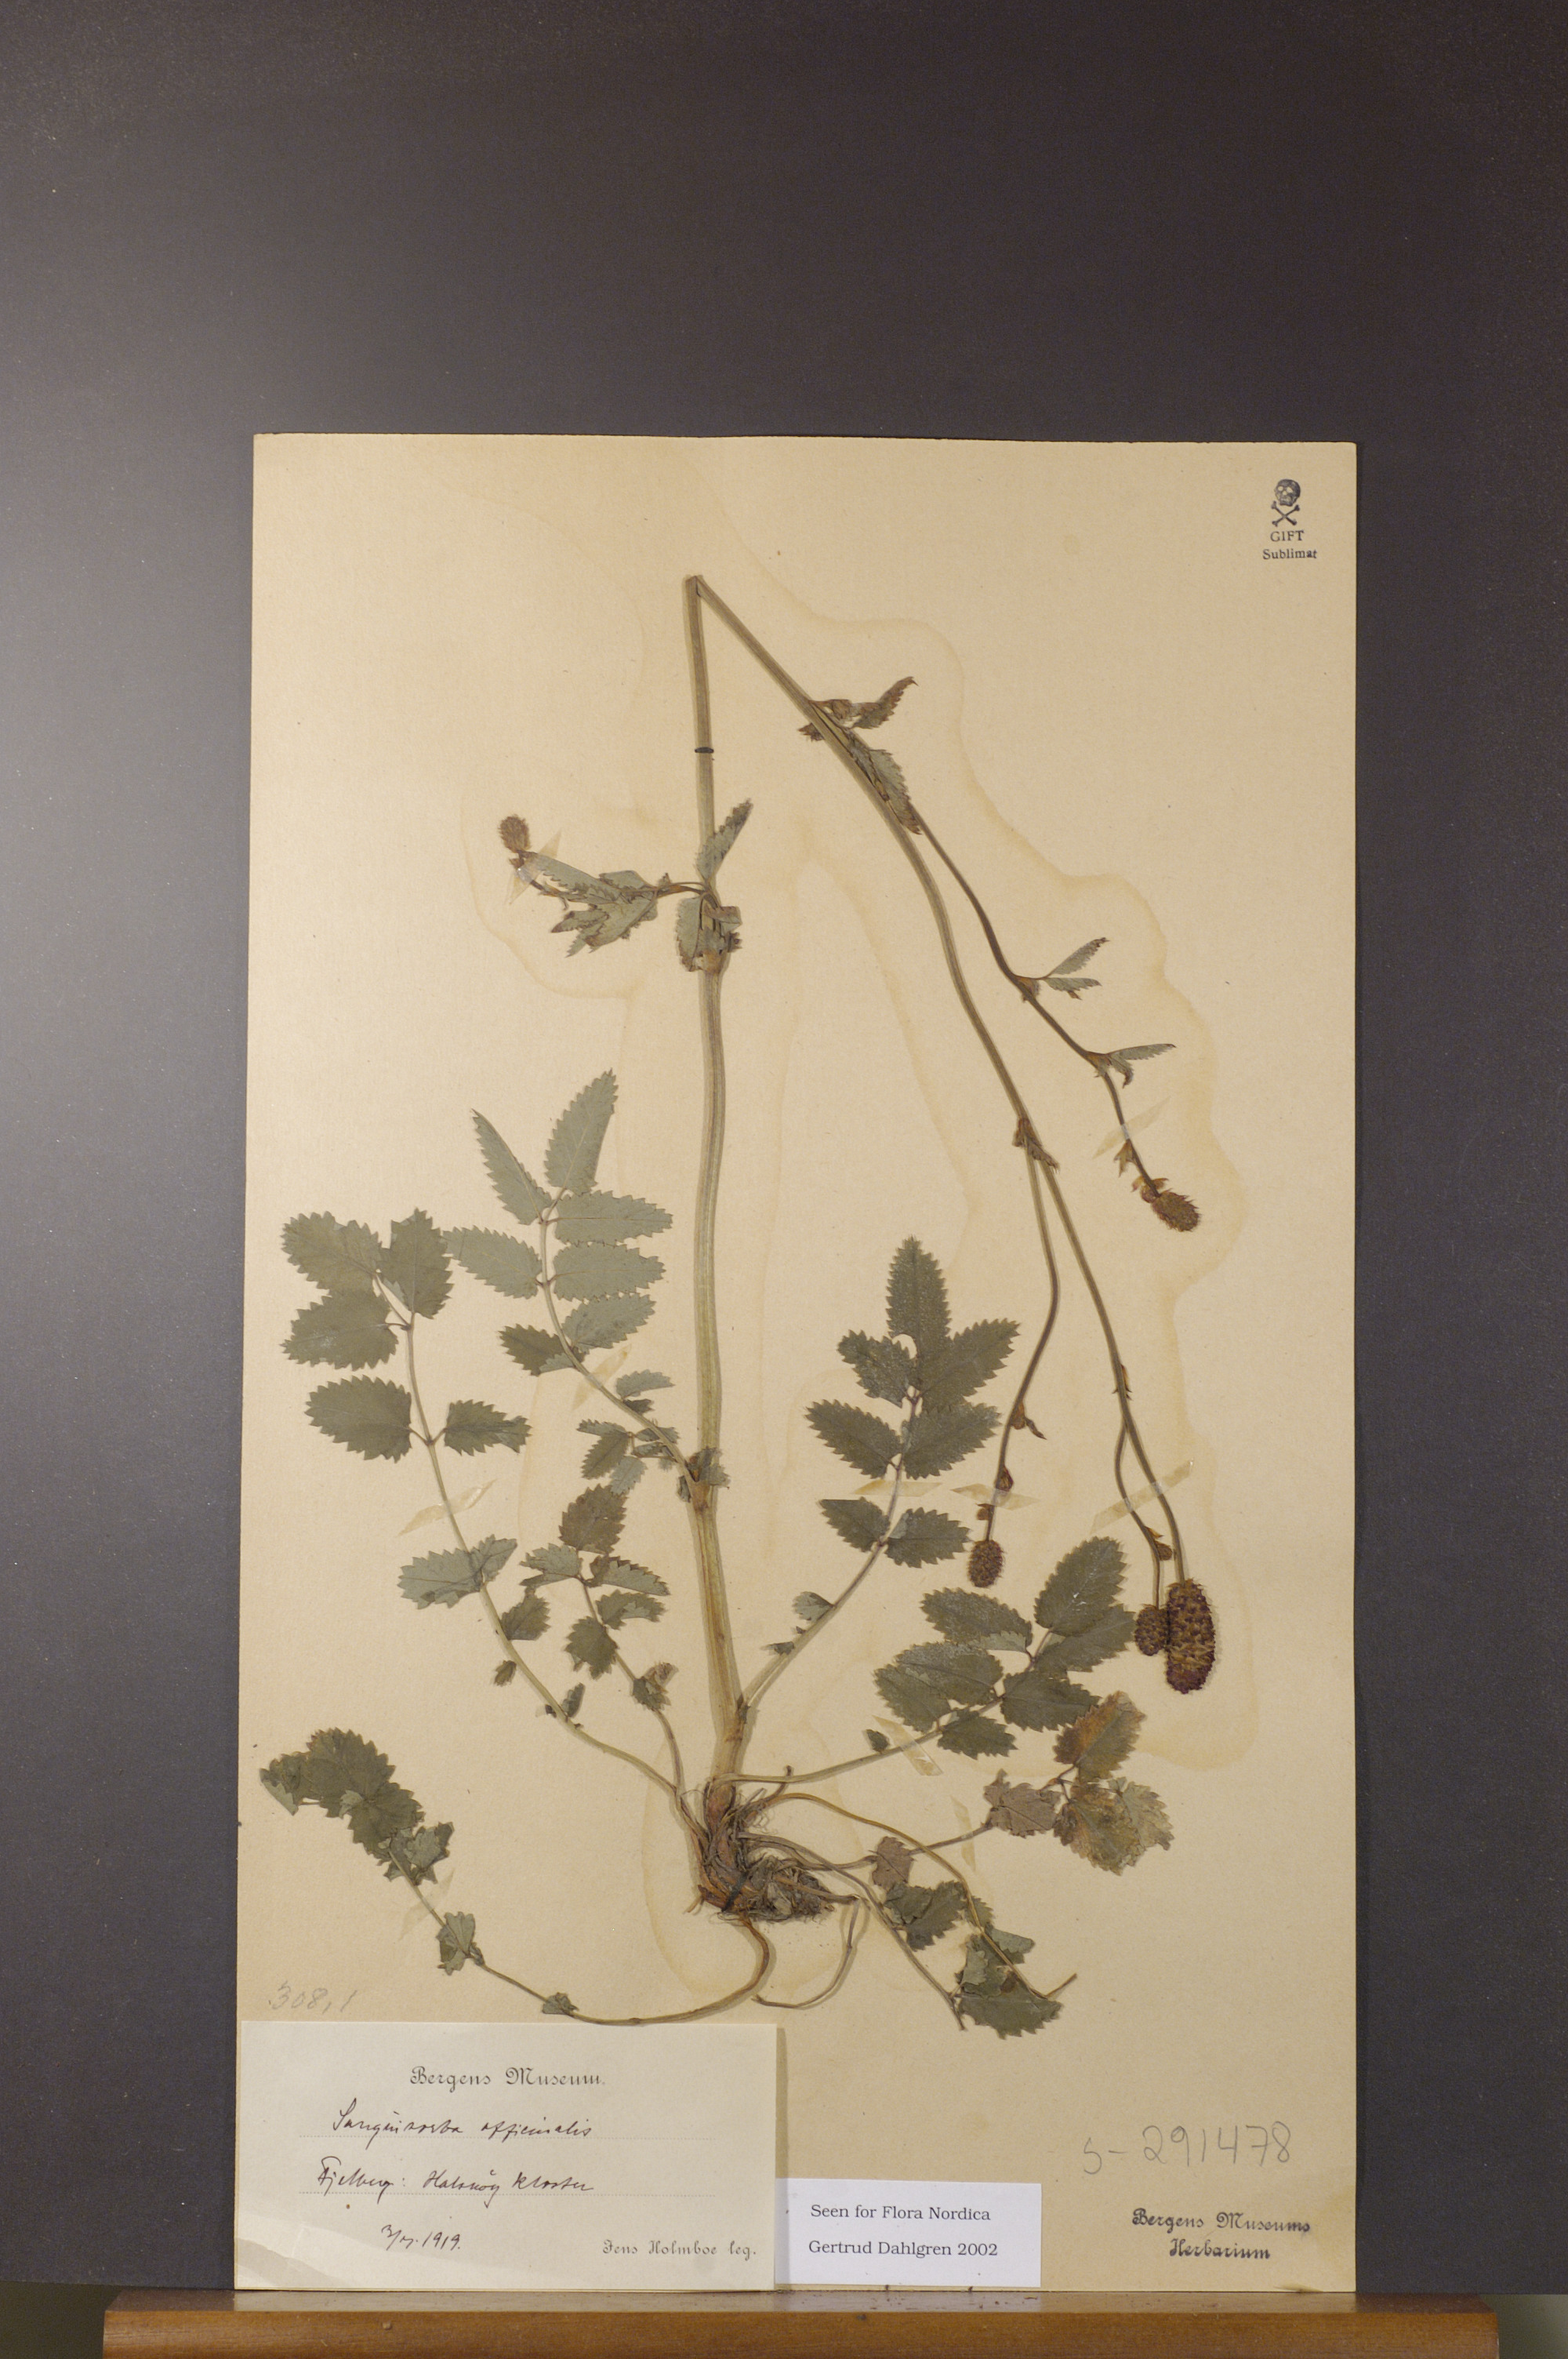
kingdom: Plantae
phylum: Tracheophyta
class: Magnoliopsida
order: Rosales
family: Rosaceae
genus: Sanguisorba
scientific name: Sanguisorba officinalis
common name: Great burnet
